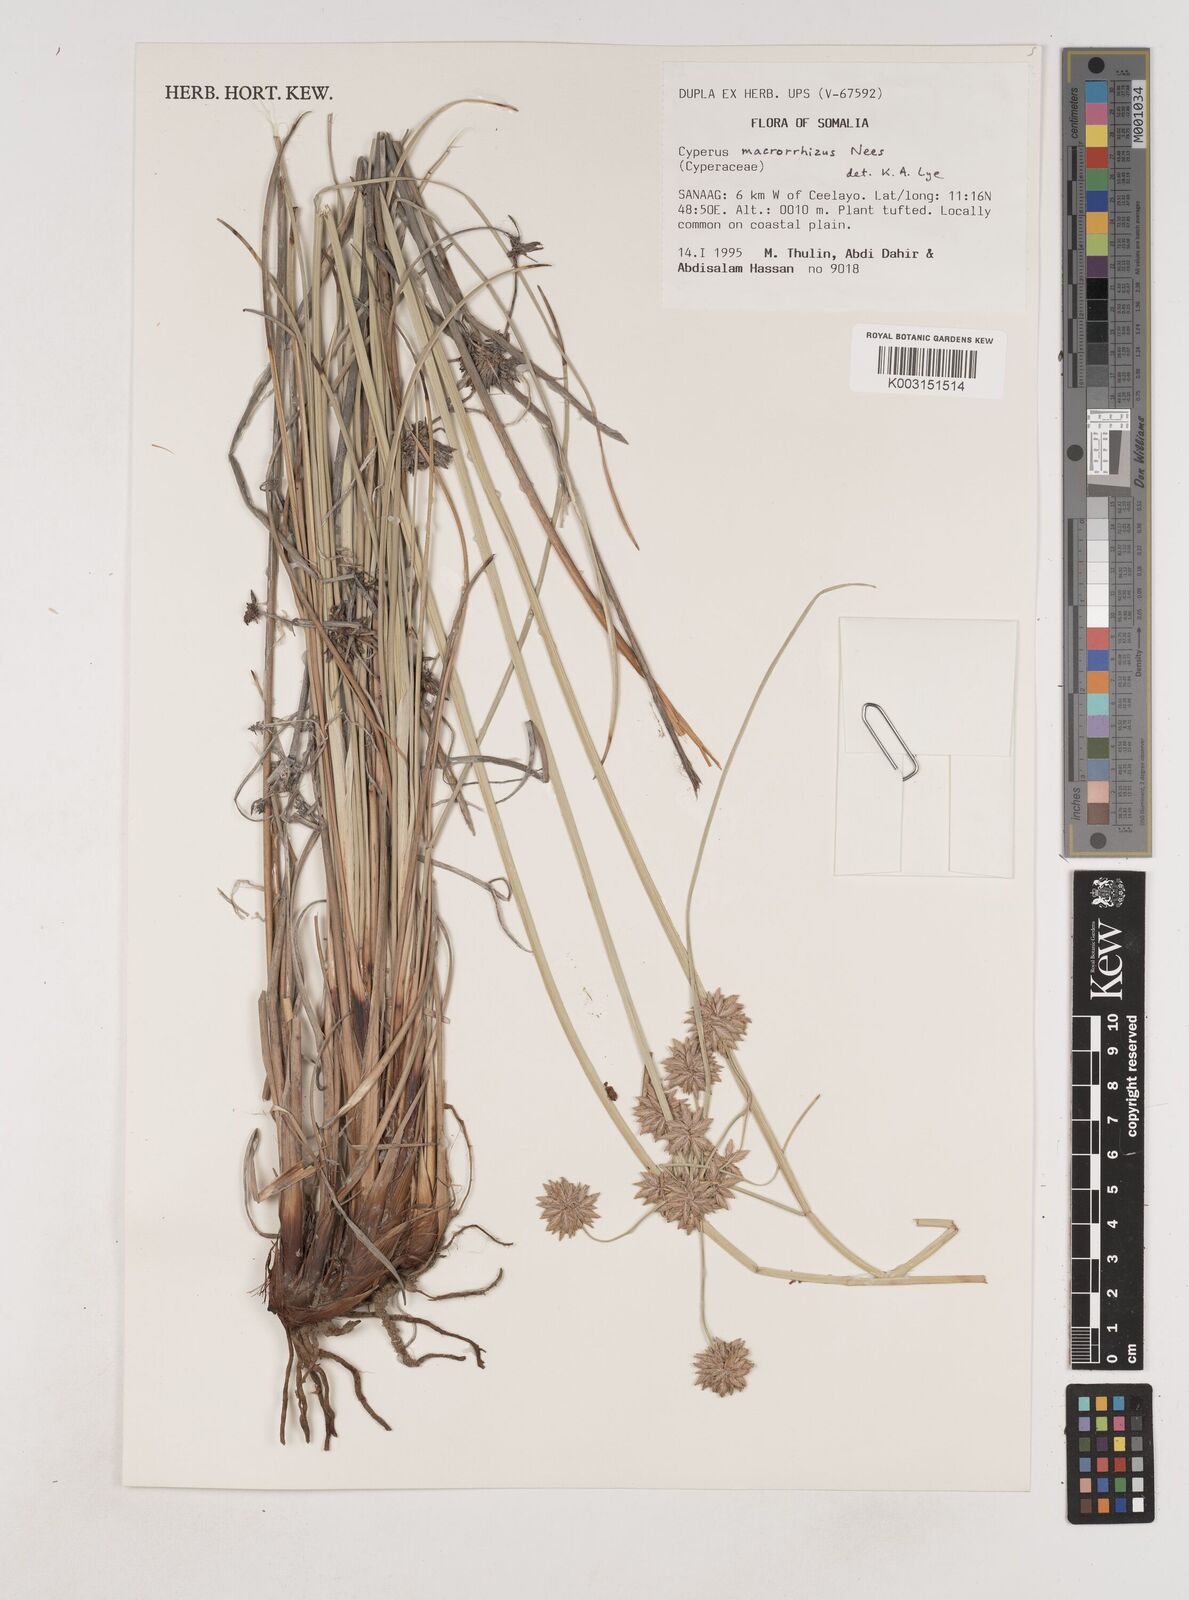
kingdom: Plantae
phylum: Tracheophyta
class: Liliopsida
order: Poales
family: Cyperaceae
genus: Cyperus
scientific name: Cyperus macrorrhizus
